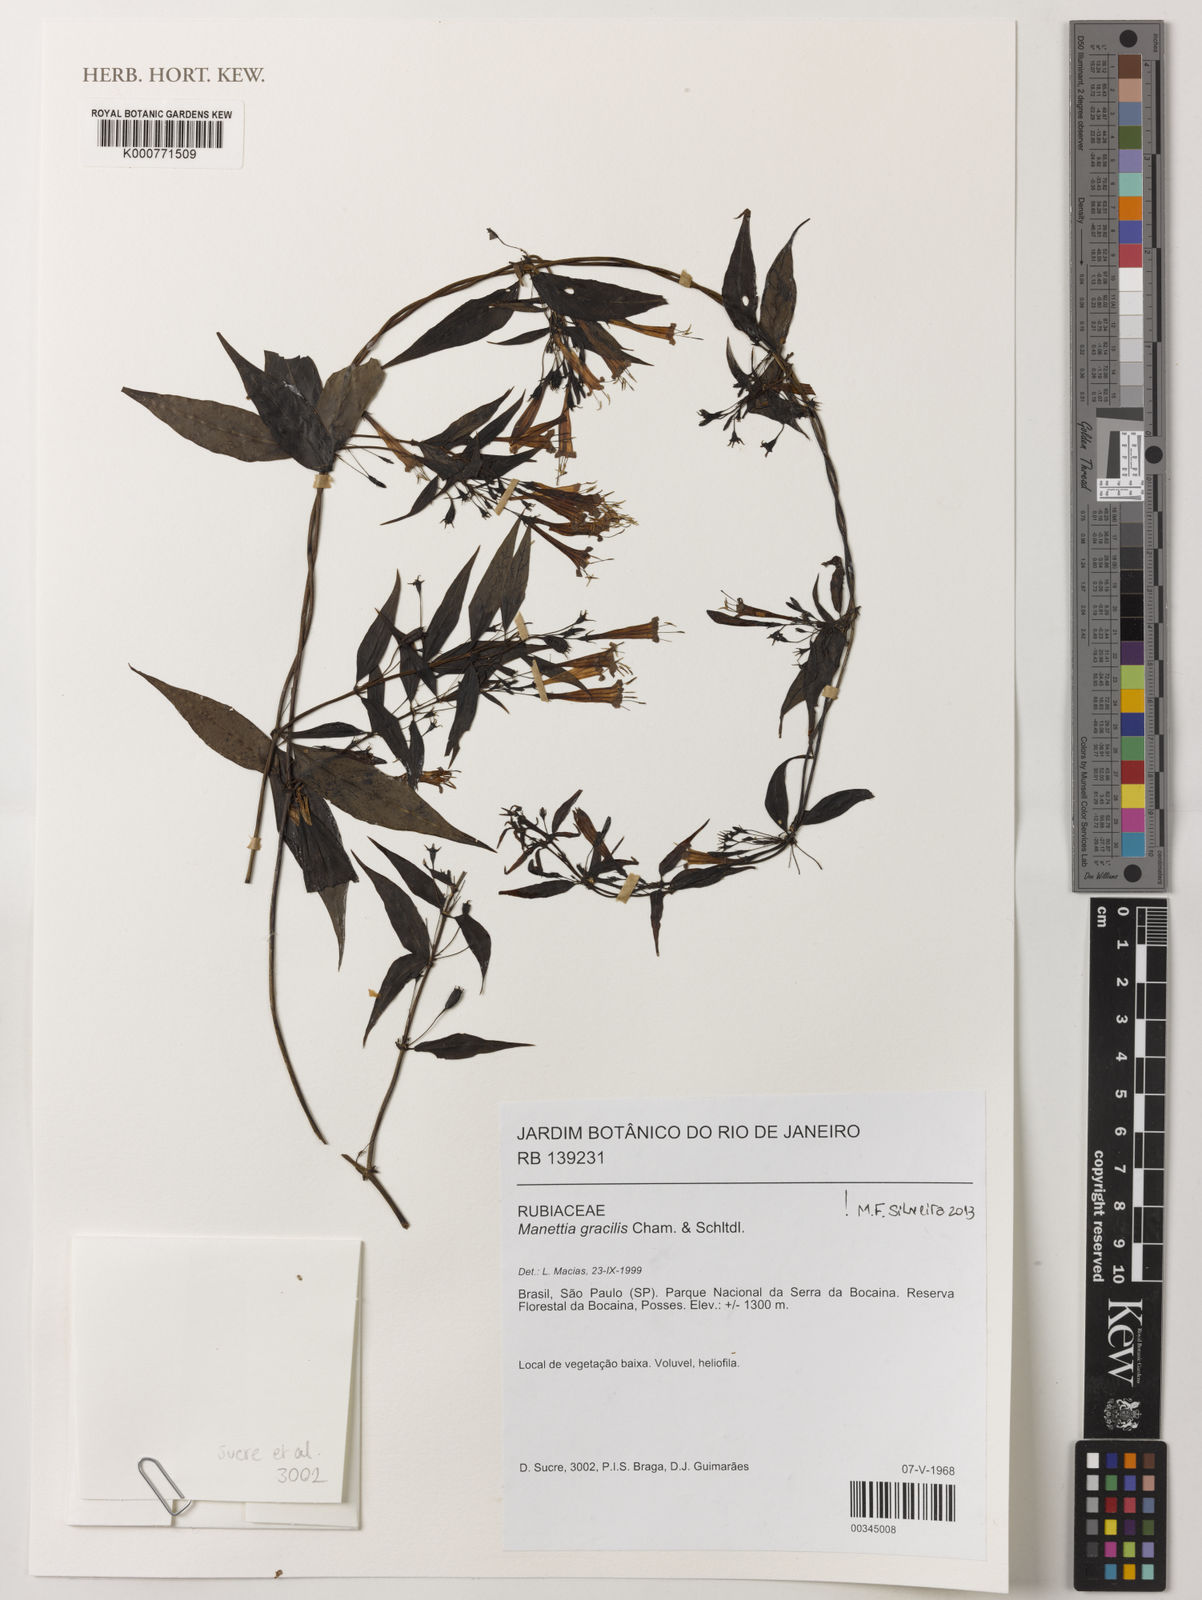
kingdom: Plantae
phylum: Tracheophyta
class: Magnoliopsida
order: Gentianales
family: Rubiaceae
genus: Manettia
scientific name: Manettia gracilis
